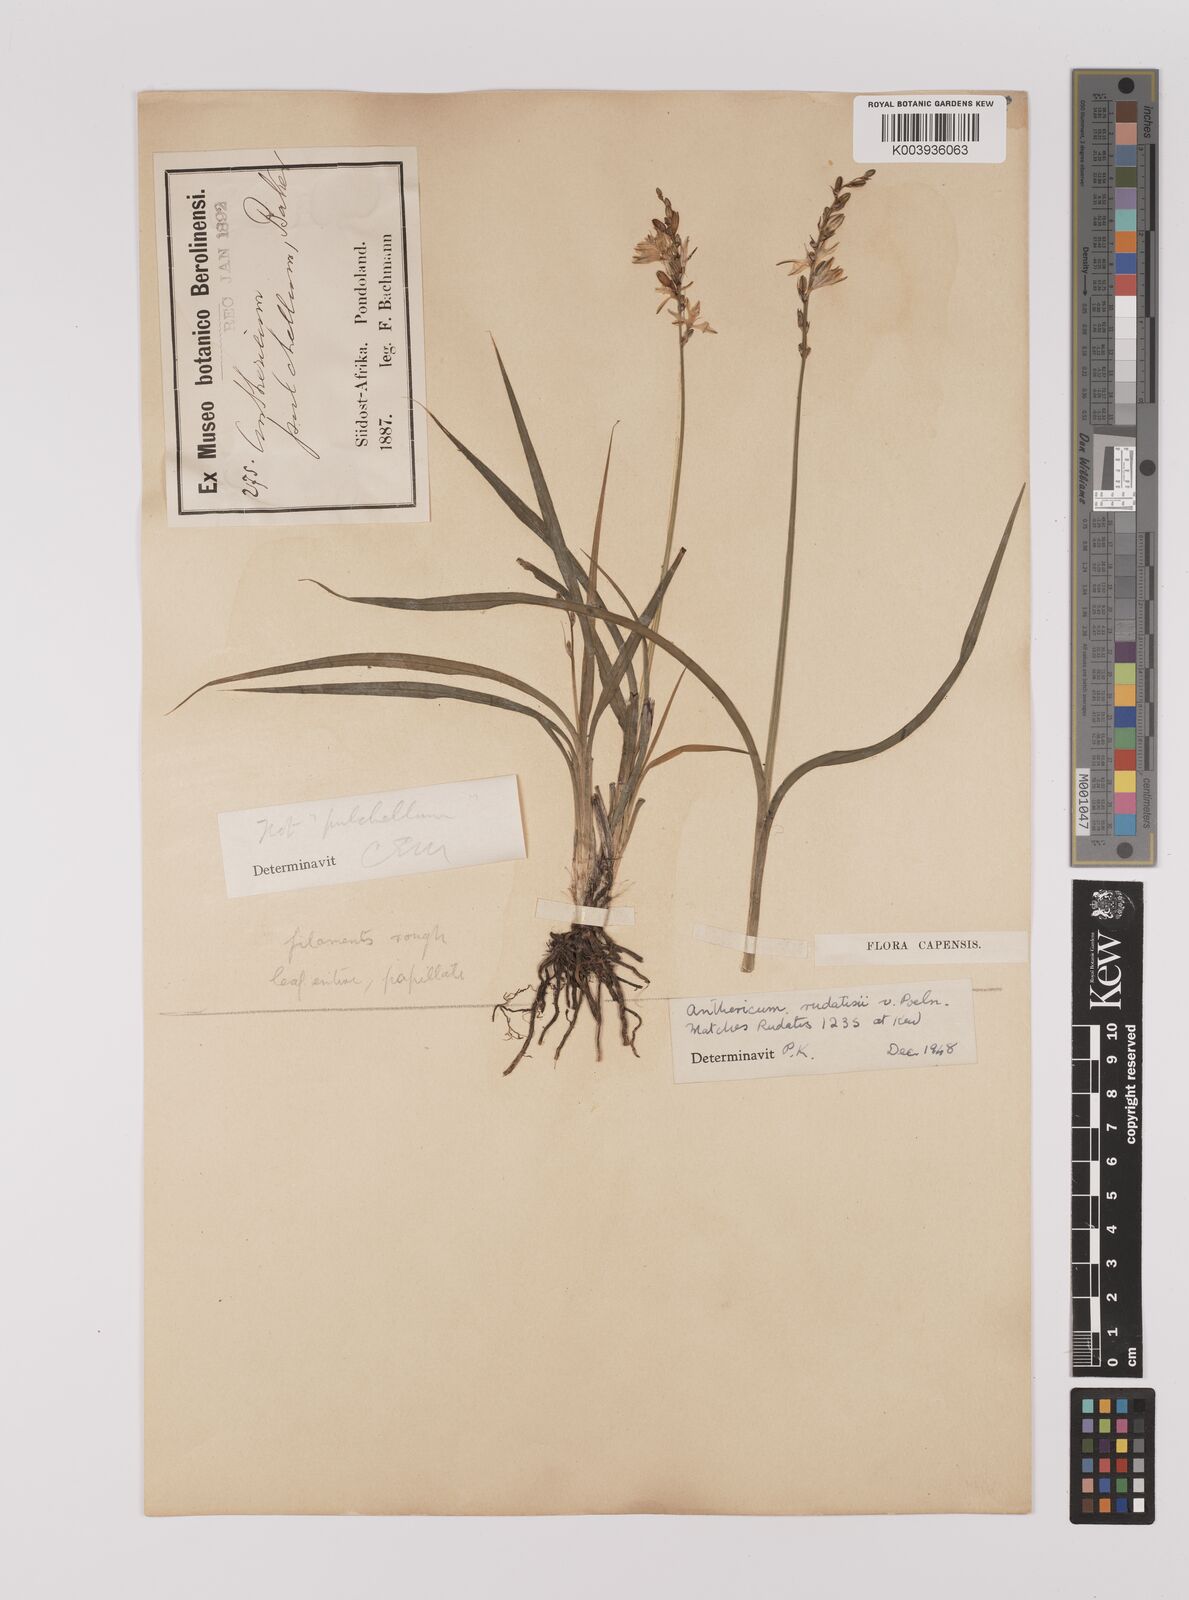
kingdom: Plantae
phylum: Tracheophyta
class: Liliopsida
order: Asparagales
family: Asparagaceae
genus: Chlorophytum
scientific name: Chlorophytum saundersiae
